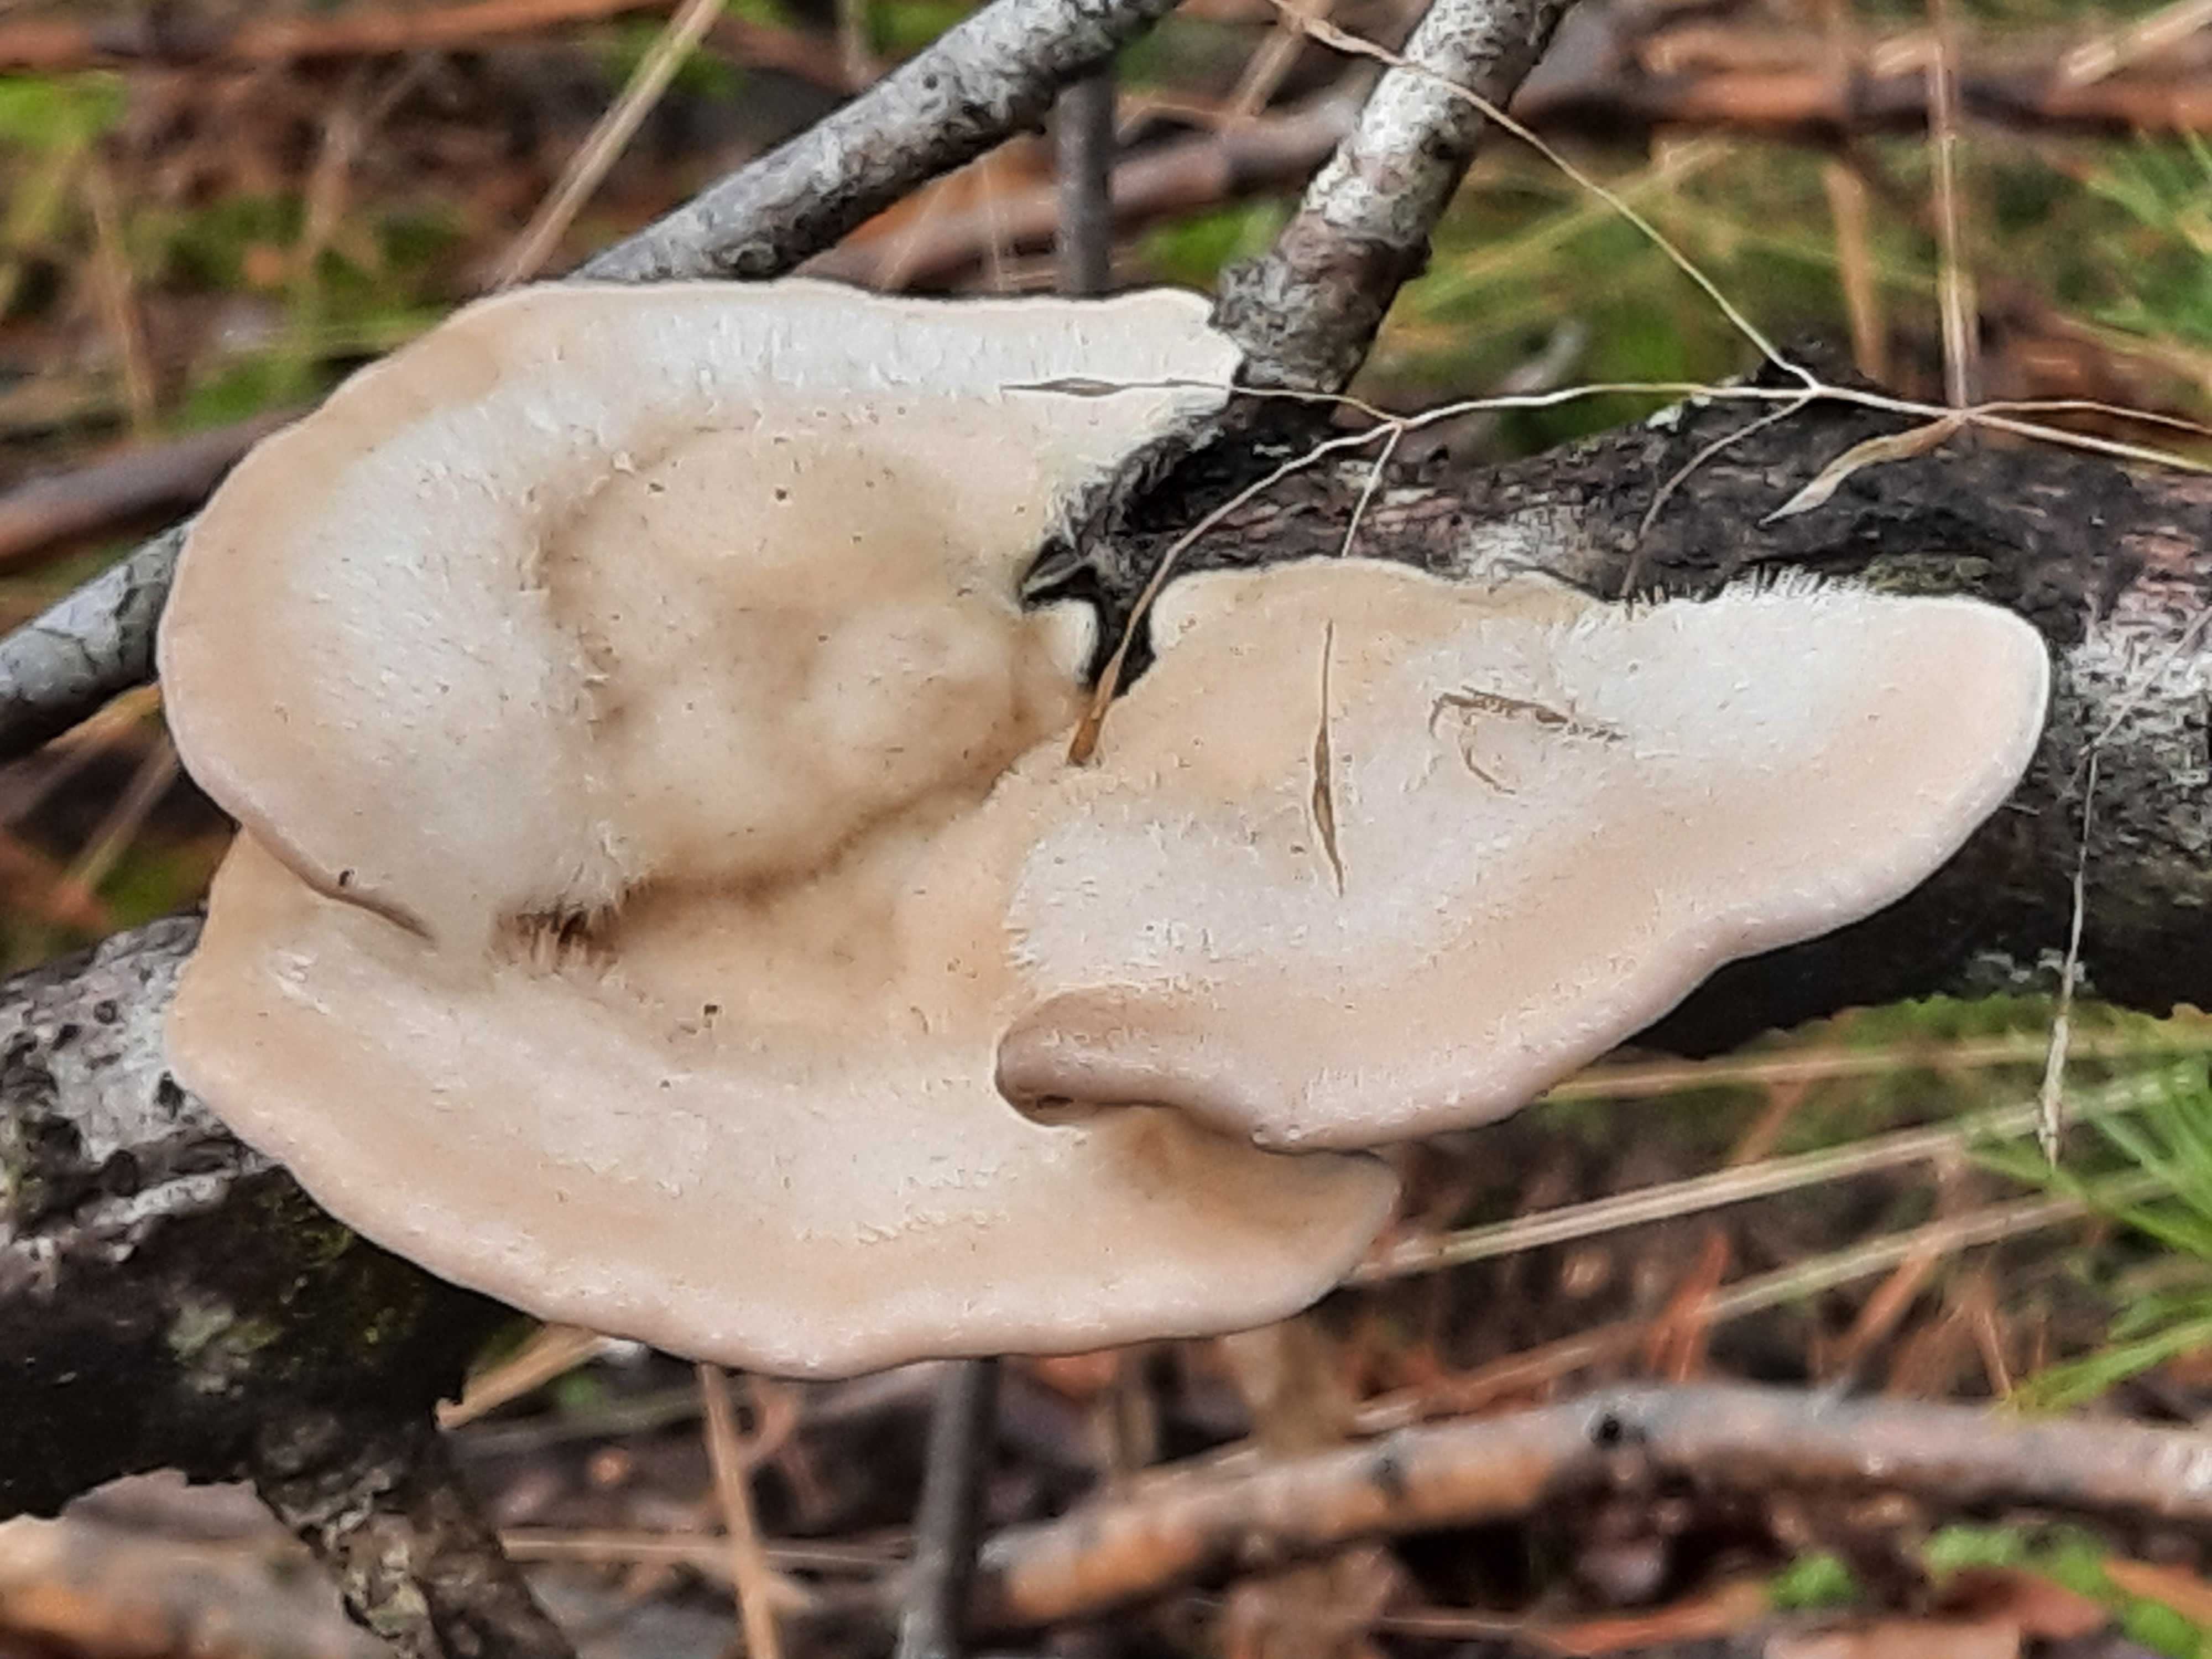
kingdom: Fungi
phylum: Basidiomycota
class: Agaricomycetes
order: Polyporales
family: Polyporaceae
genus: Trametes
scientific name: Trametes hirsuta
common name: håret læderporesvamp
